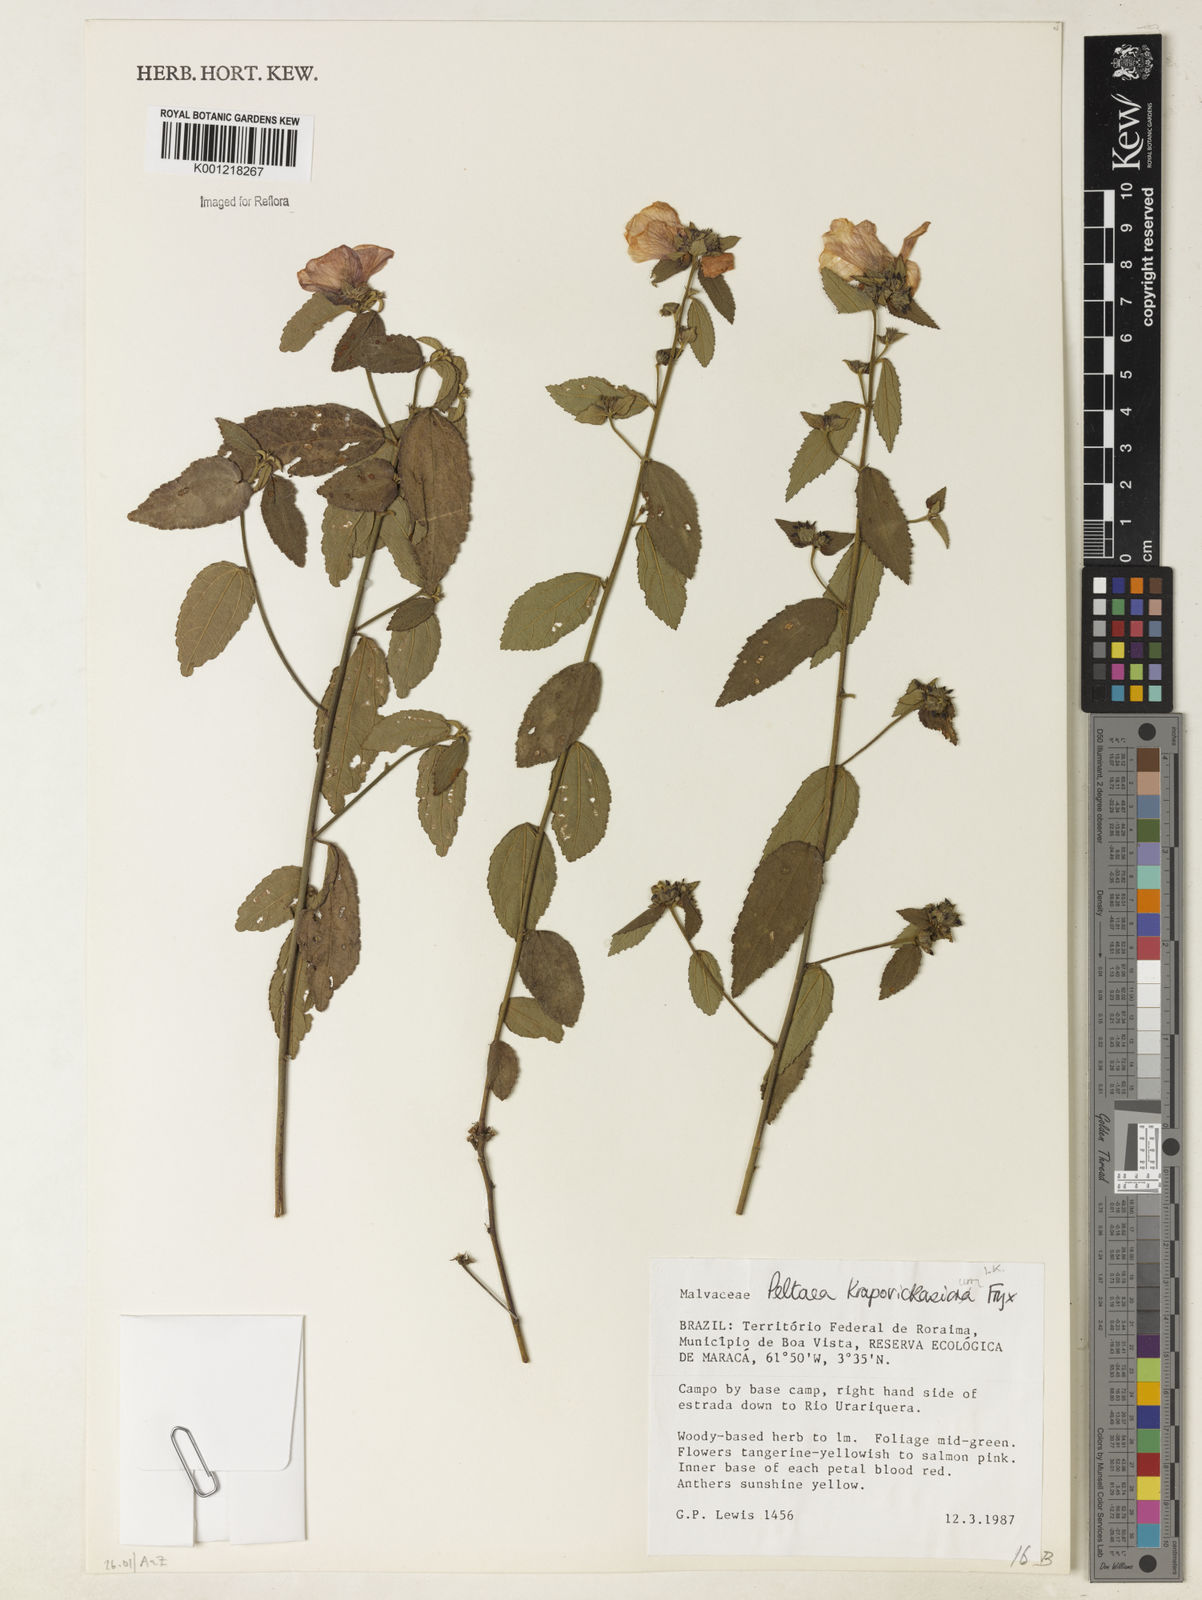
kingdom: Plantae
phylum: Tracheophyta
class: Magnoliopsida
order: Malvales
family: Malvaceae
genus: Peltaea
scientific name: Peltaea krapovickasiorum
